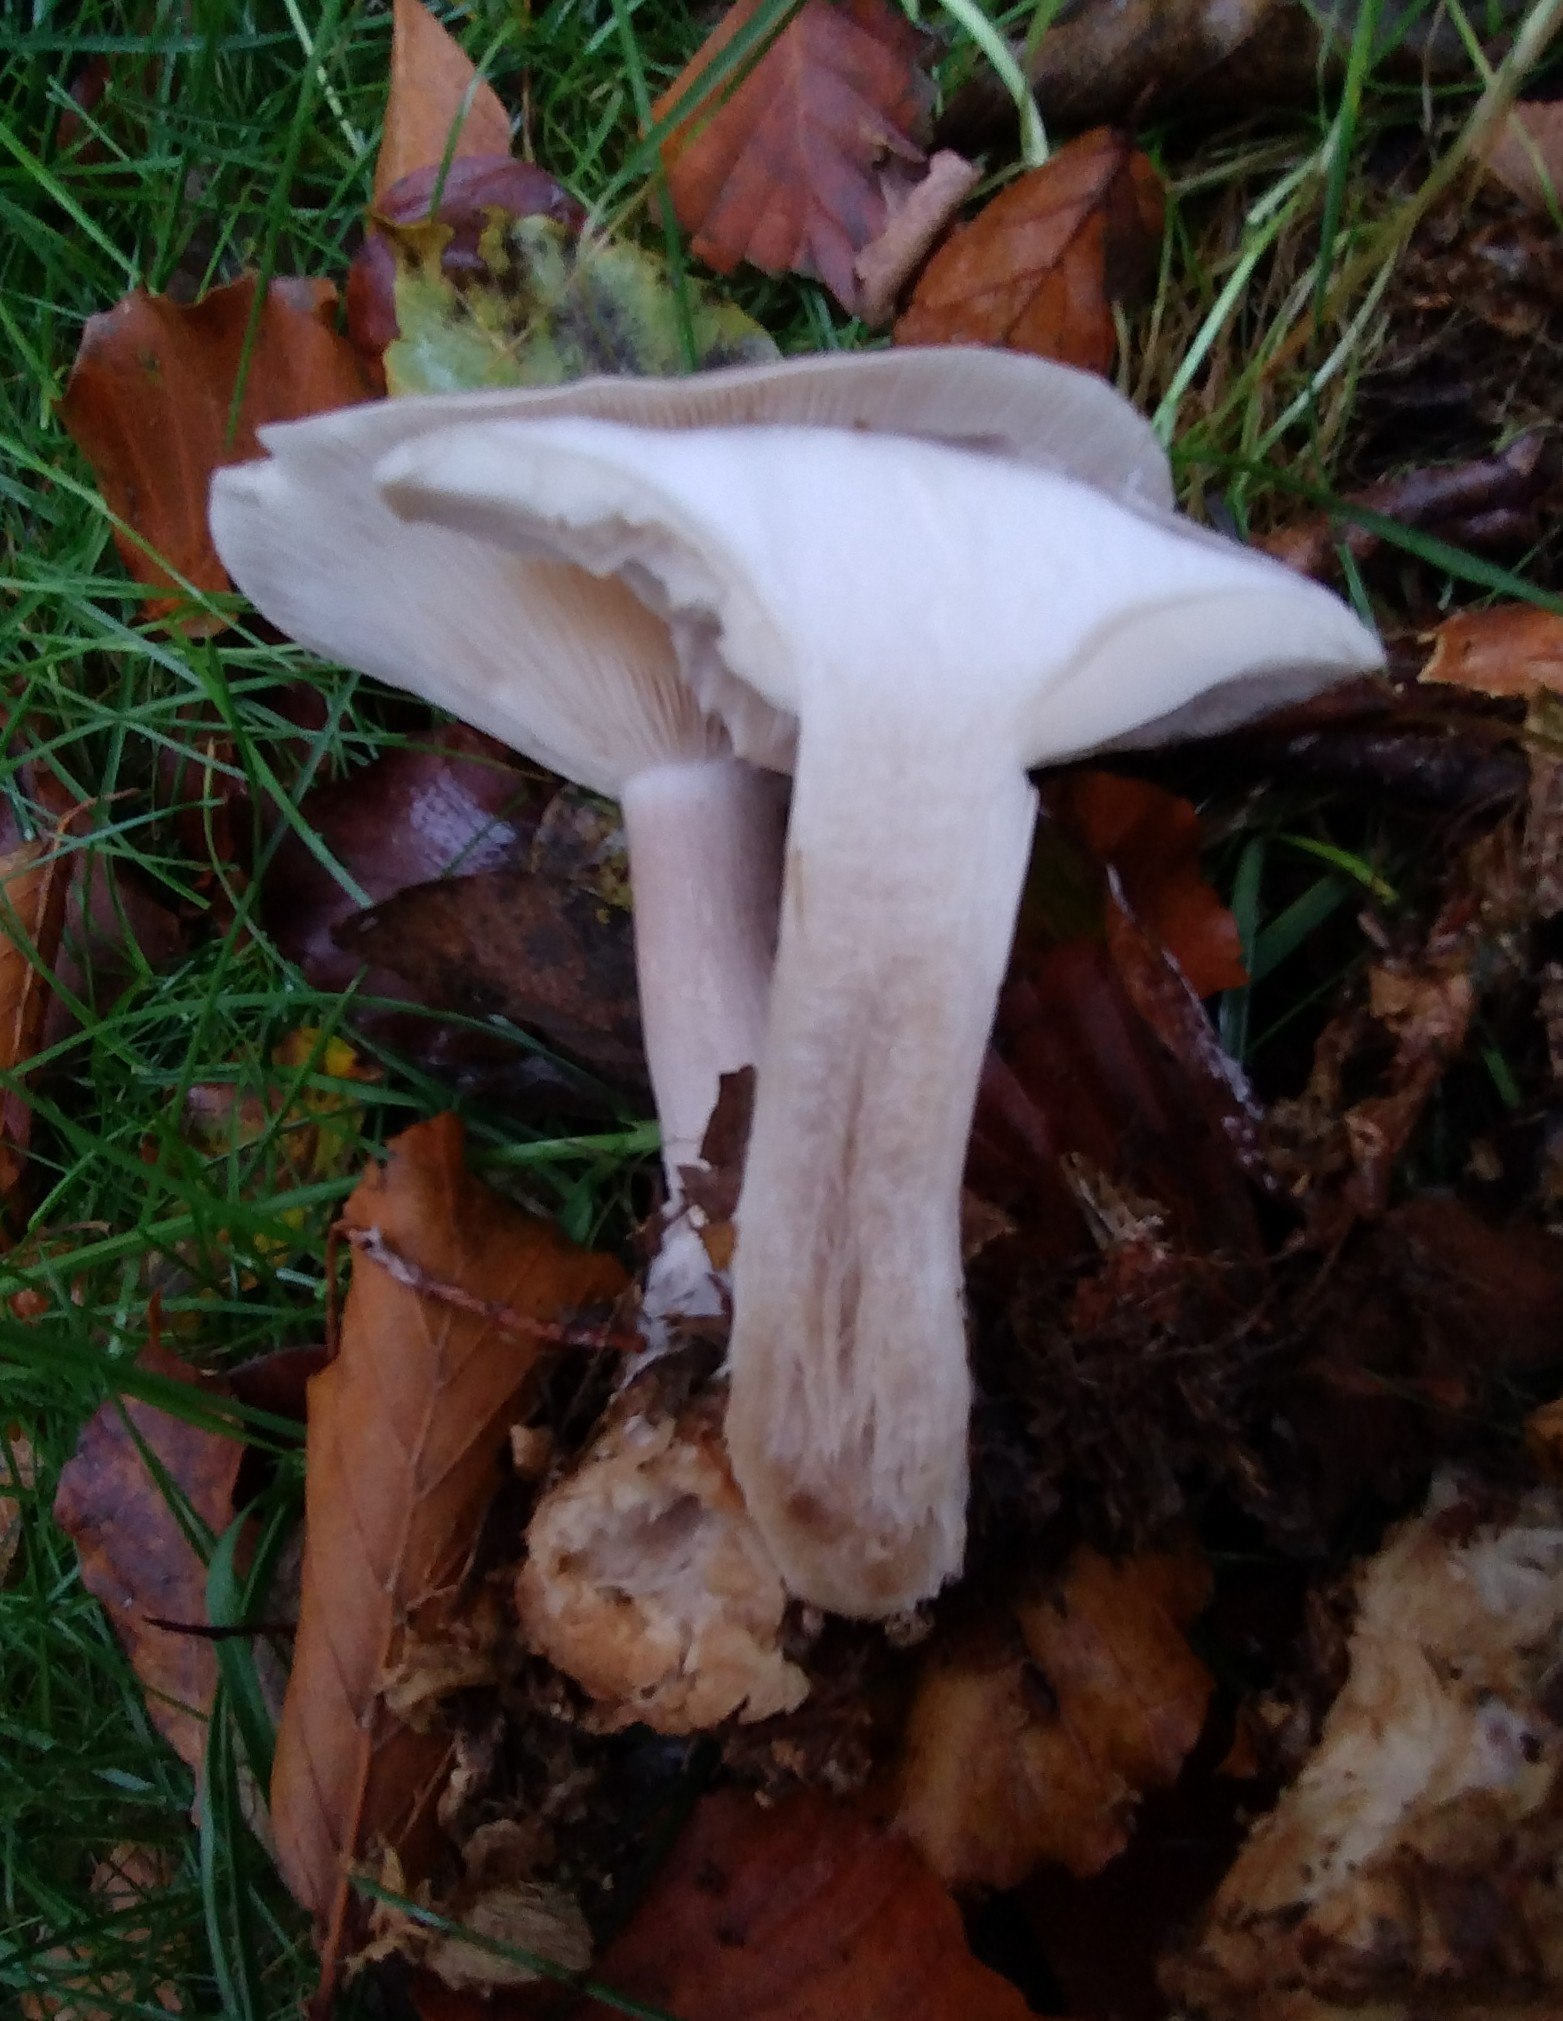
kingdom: Fungi
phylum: Basidiomycota
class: Agaricomycetes
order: Agaricales
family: Tricholomataceae
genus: Clitocybe
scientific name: Clitocybe nebularis
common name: tåge-tragthat
